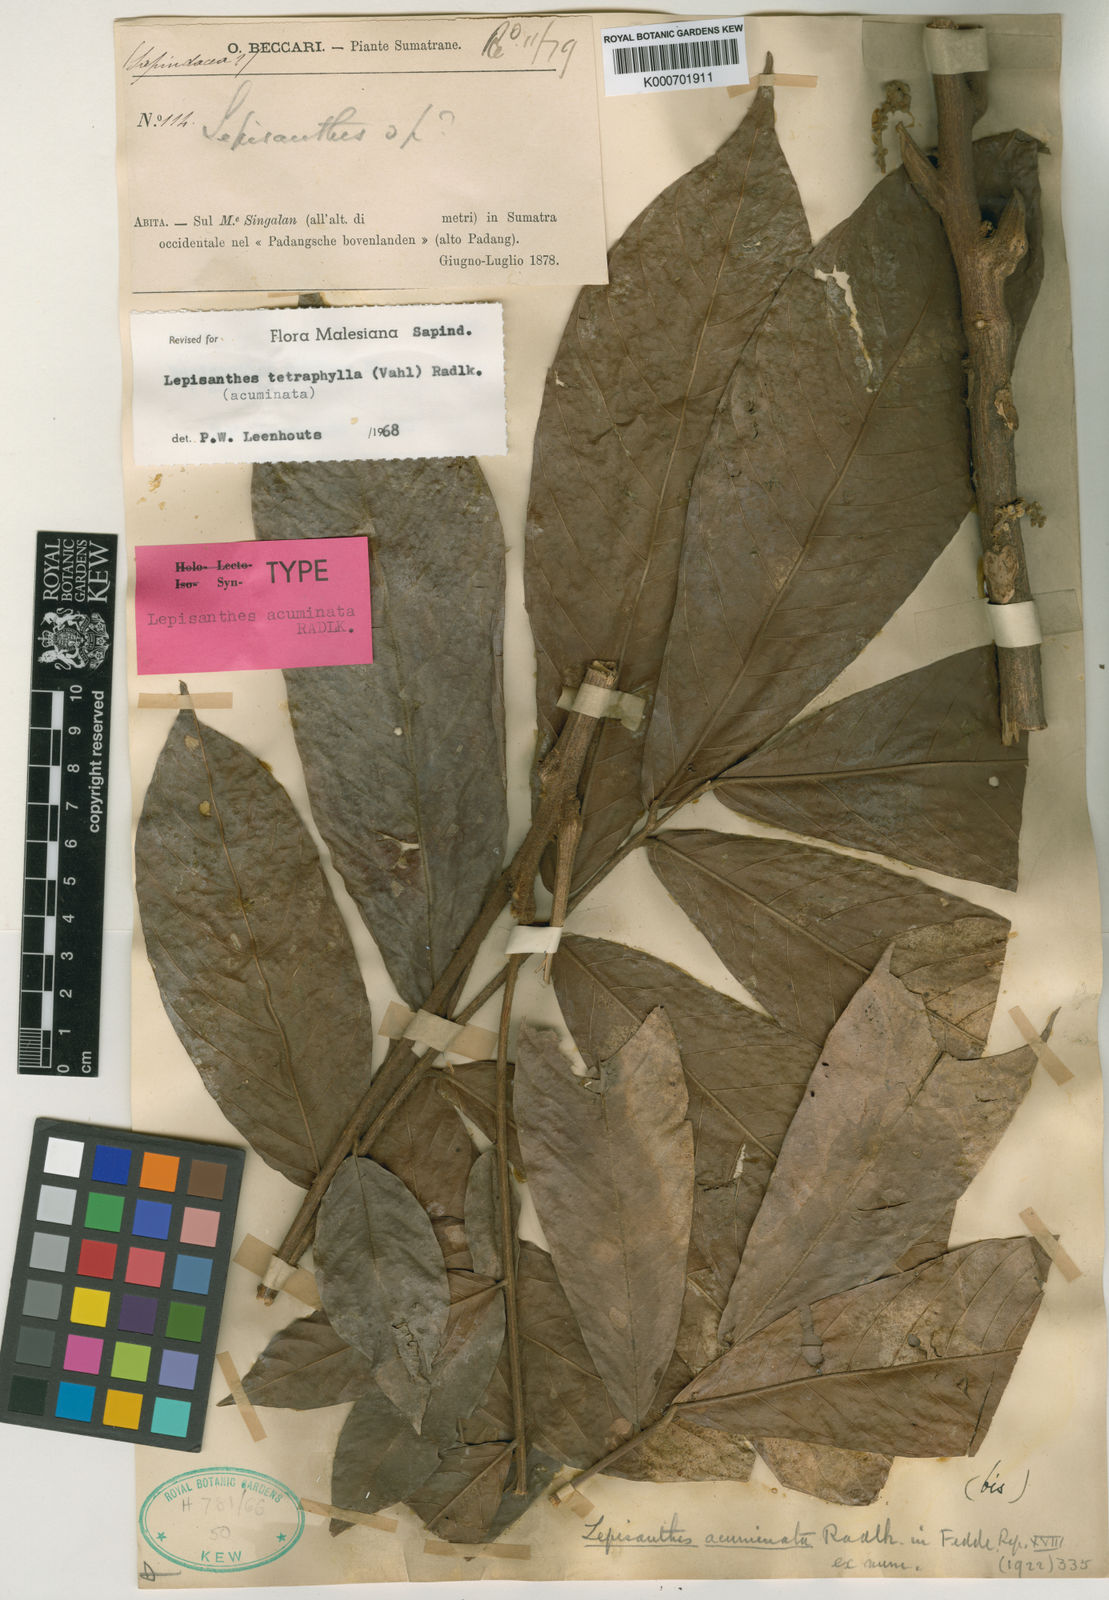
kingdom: Plantae
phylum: Tracheophyta
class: Magnoliopsida
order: Sapindales
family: Sapindaceae
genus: Lepisanthes
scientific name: Lepisanthes tetraphylla
